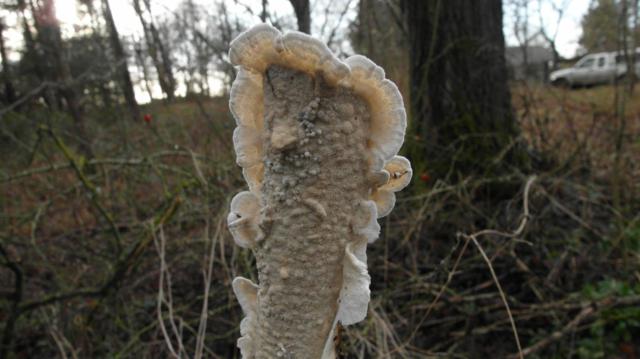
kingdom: Fungi
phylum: Basidiomycota
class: Agaricomycetes
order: Polyporales
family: Irpicaceae
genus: Byssomerulius
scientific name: Byssomerulius corium
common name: læder-åresvamp
